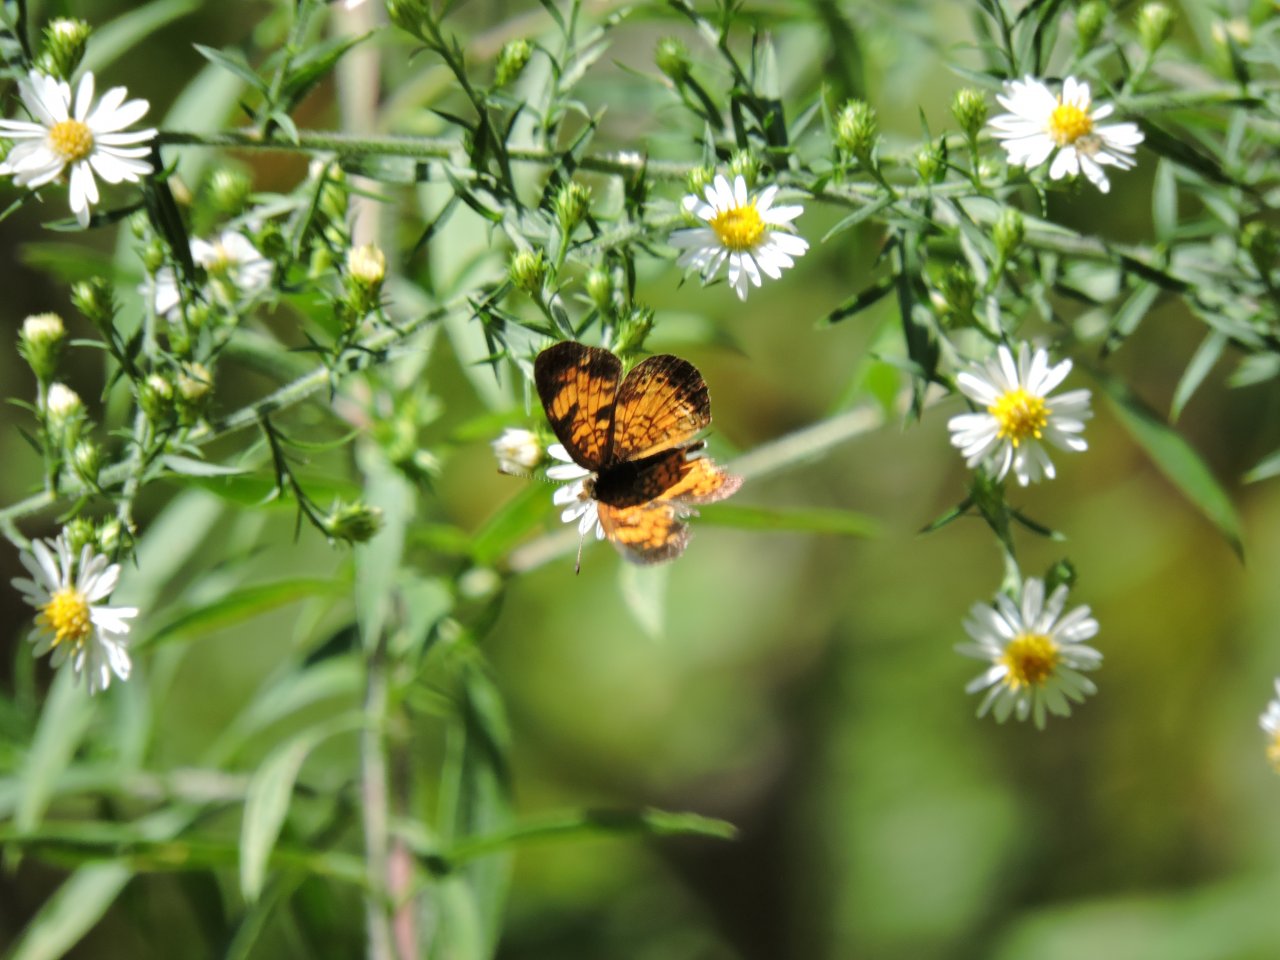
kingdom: Animalia
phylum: Arthropoda
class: Insecta
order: Lepidoptera
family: Nymphalidae
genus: Phyciodes
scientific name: Phyciodes tharos
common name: Pearl Crescent
